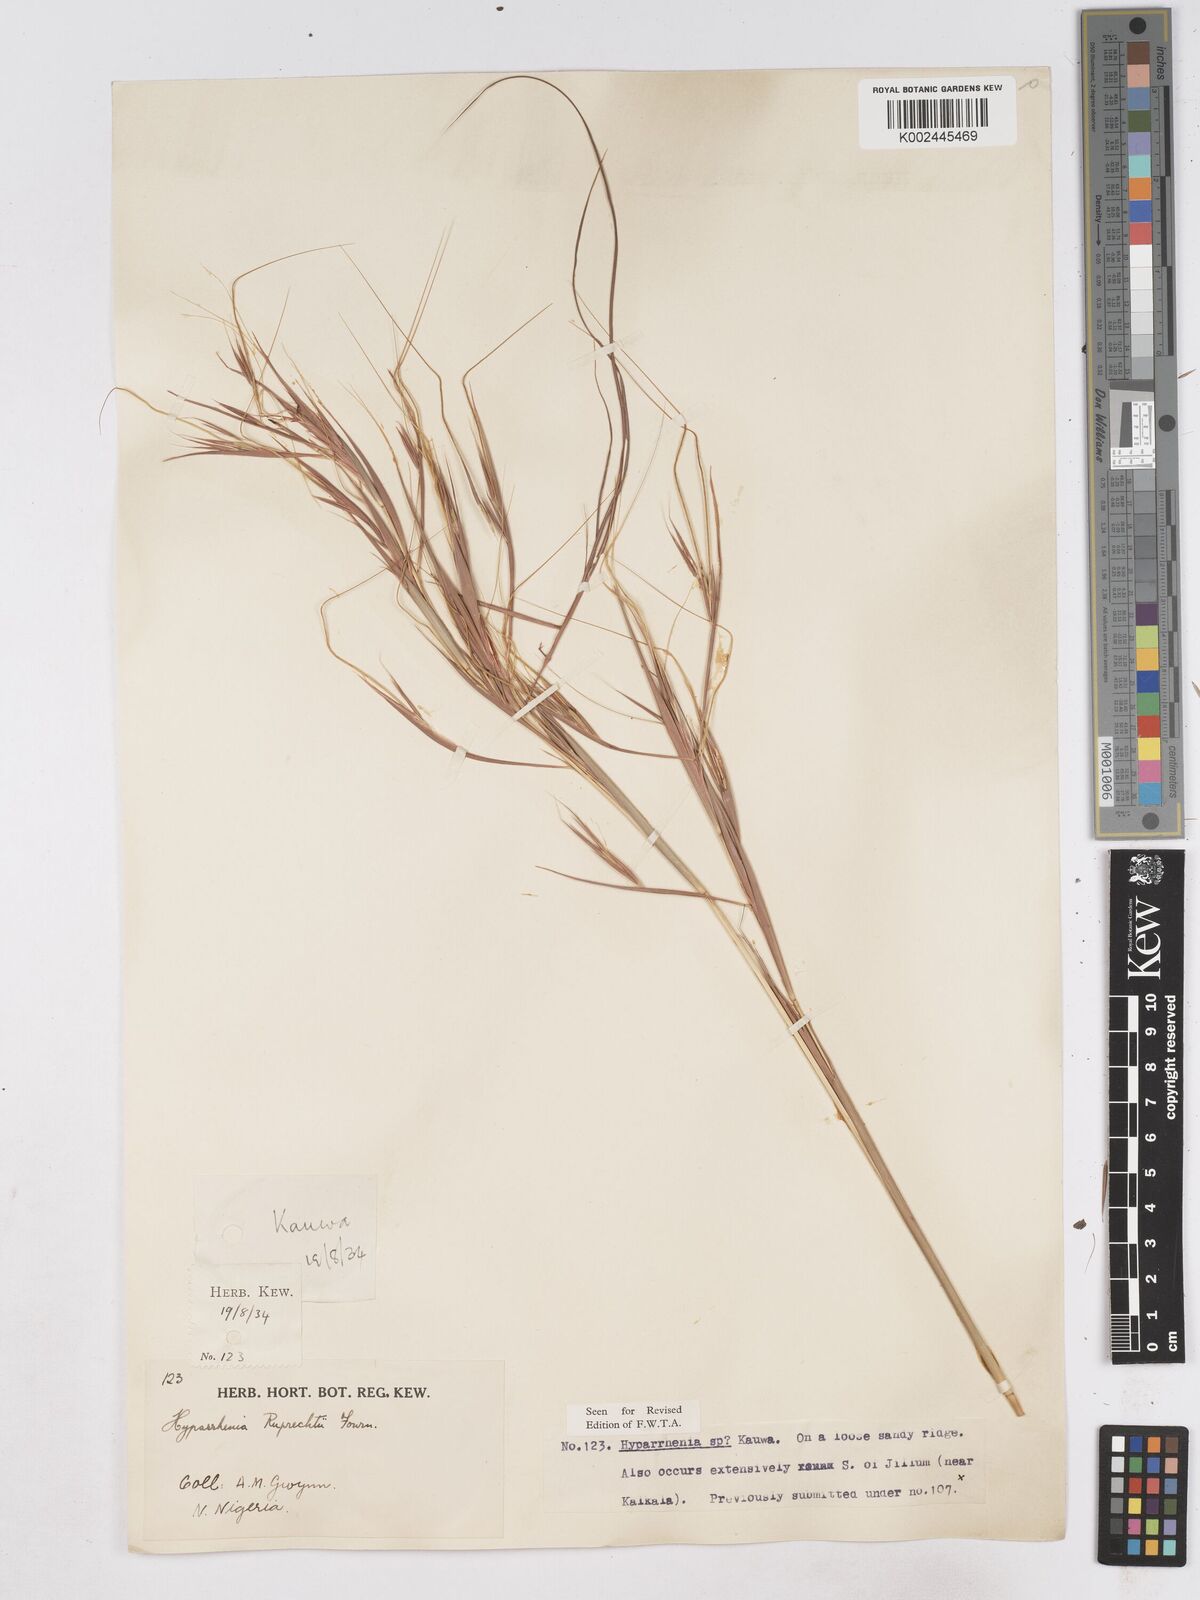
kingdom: Plantae
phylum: Tracheophyta
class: Liliopsida
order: Poales
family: Poaceae
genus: Hyperthelia
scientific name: Hyperthelia dissoluta
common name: Yellow thatching grass
